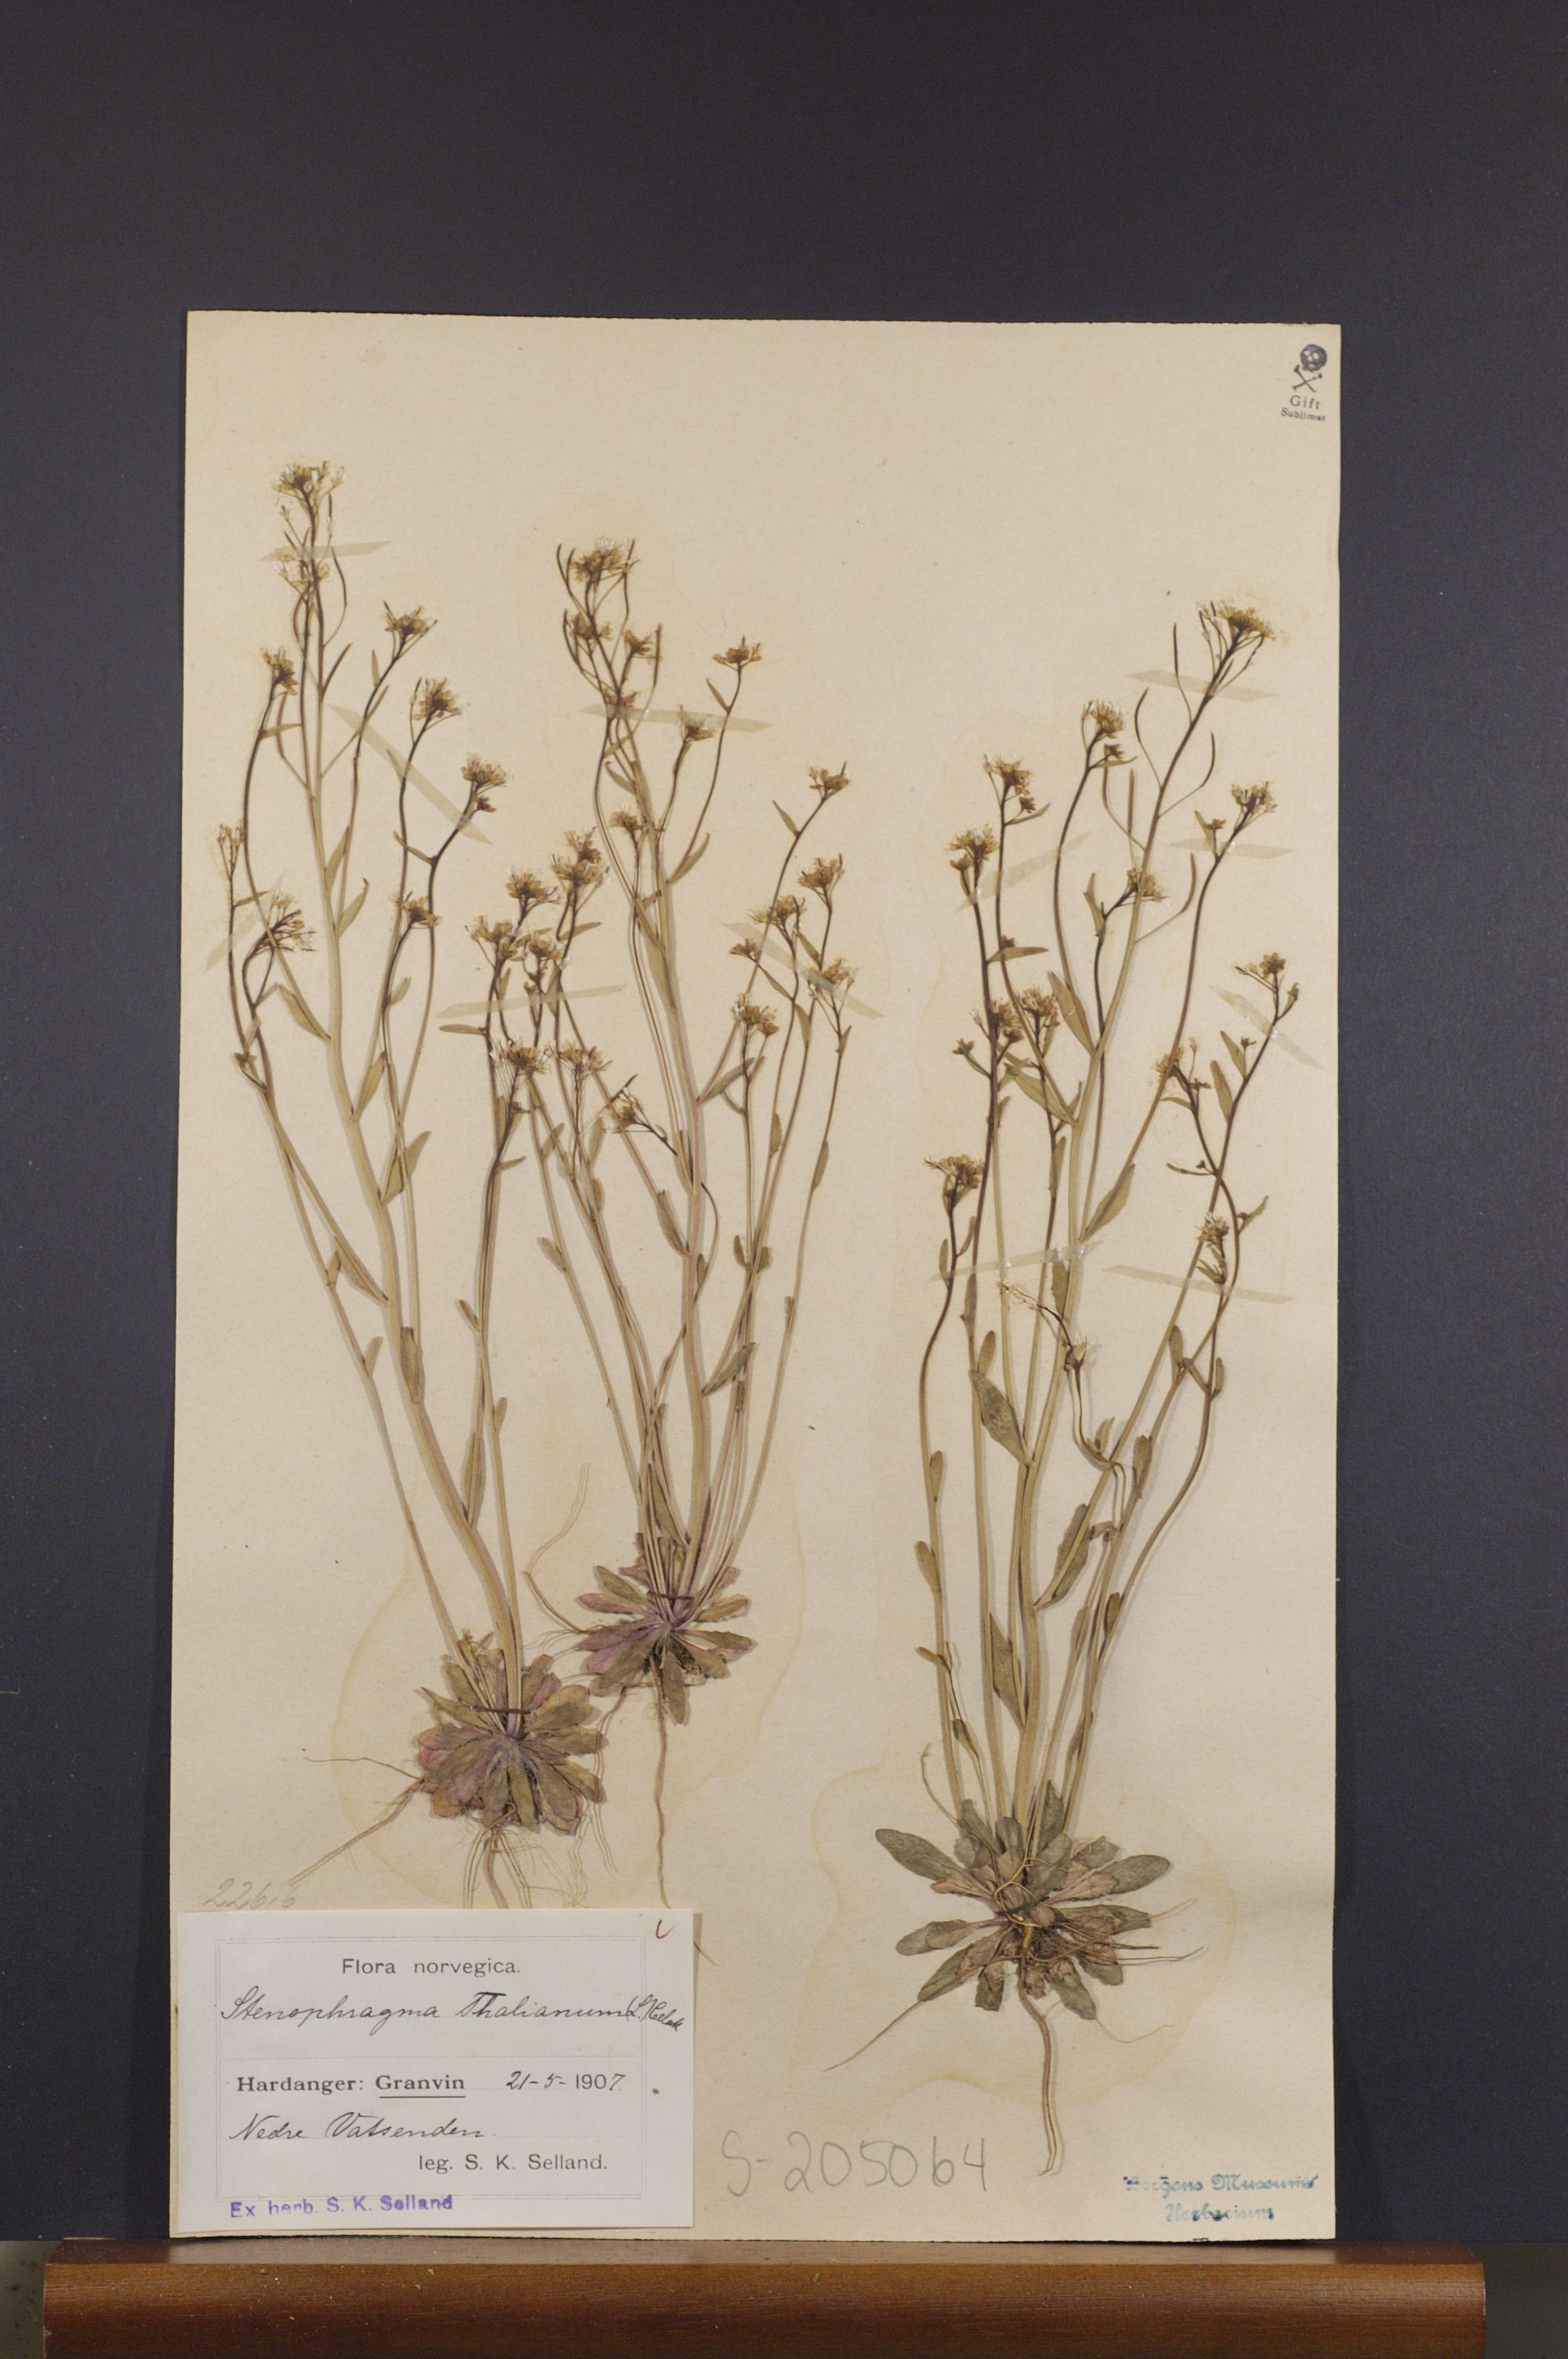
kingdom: Plantae
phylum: Tracheophyta
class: Magnoliopsida
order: Brassicales
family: Brassicaceae
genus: Arabidopsis
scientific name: Arabidopsis thaliana
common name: Thale cress
